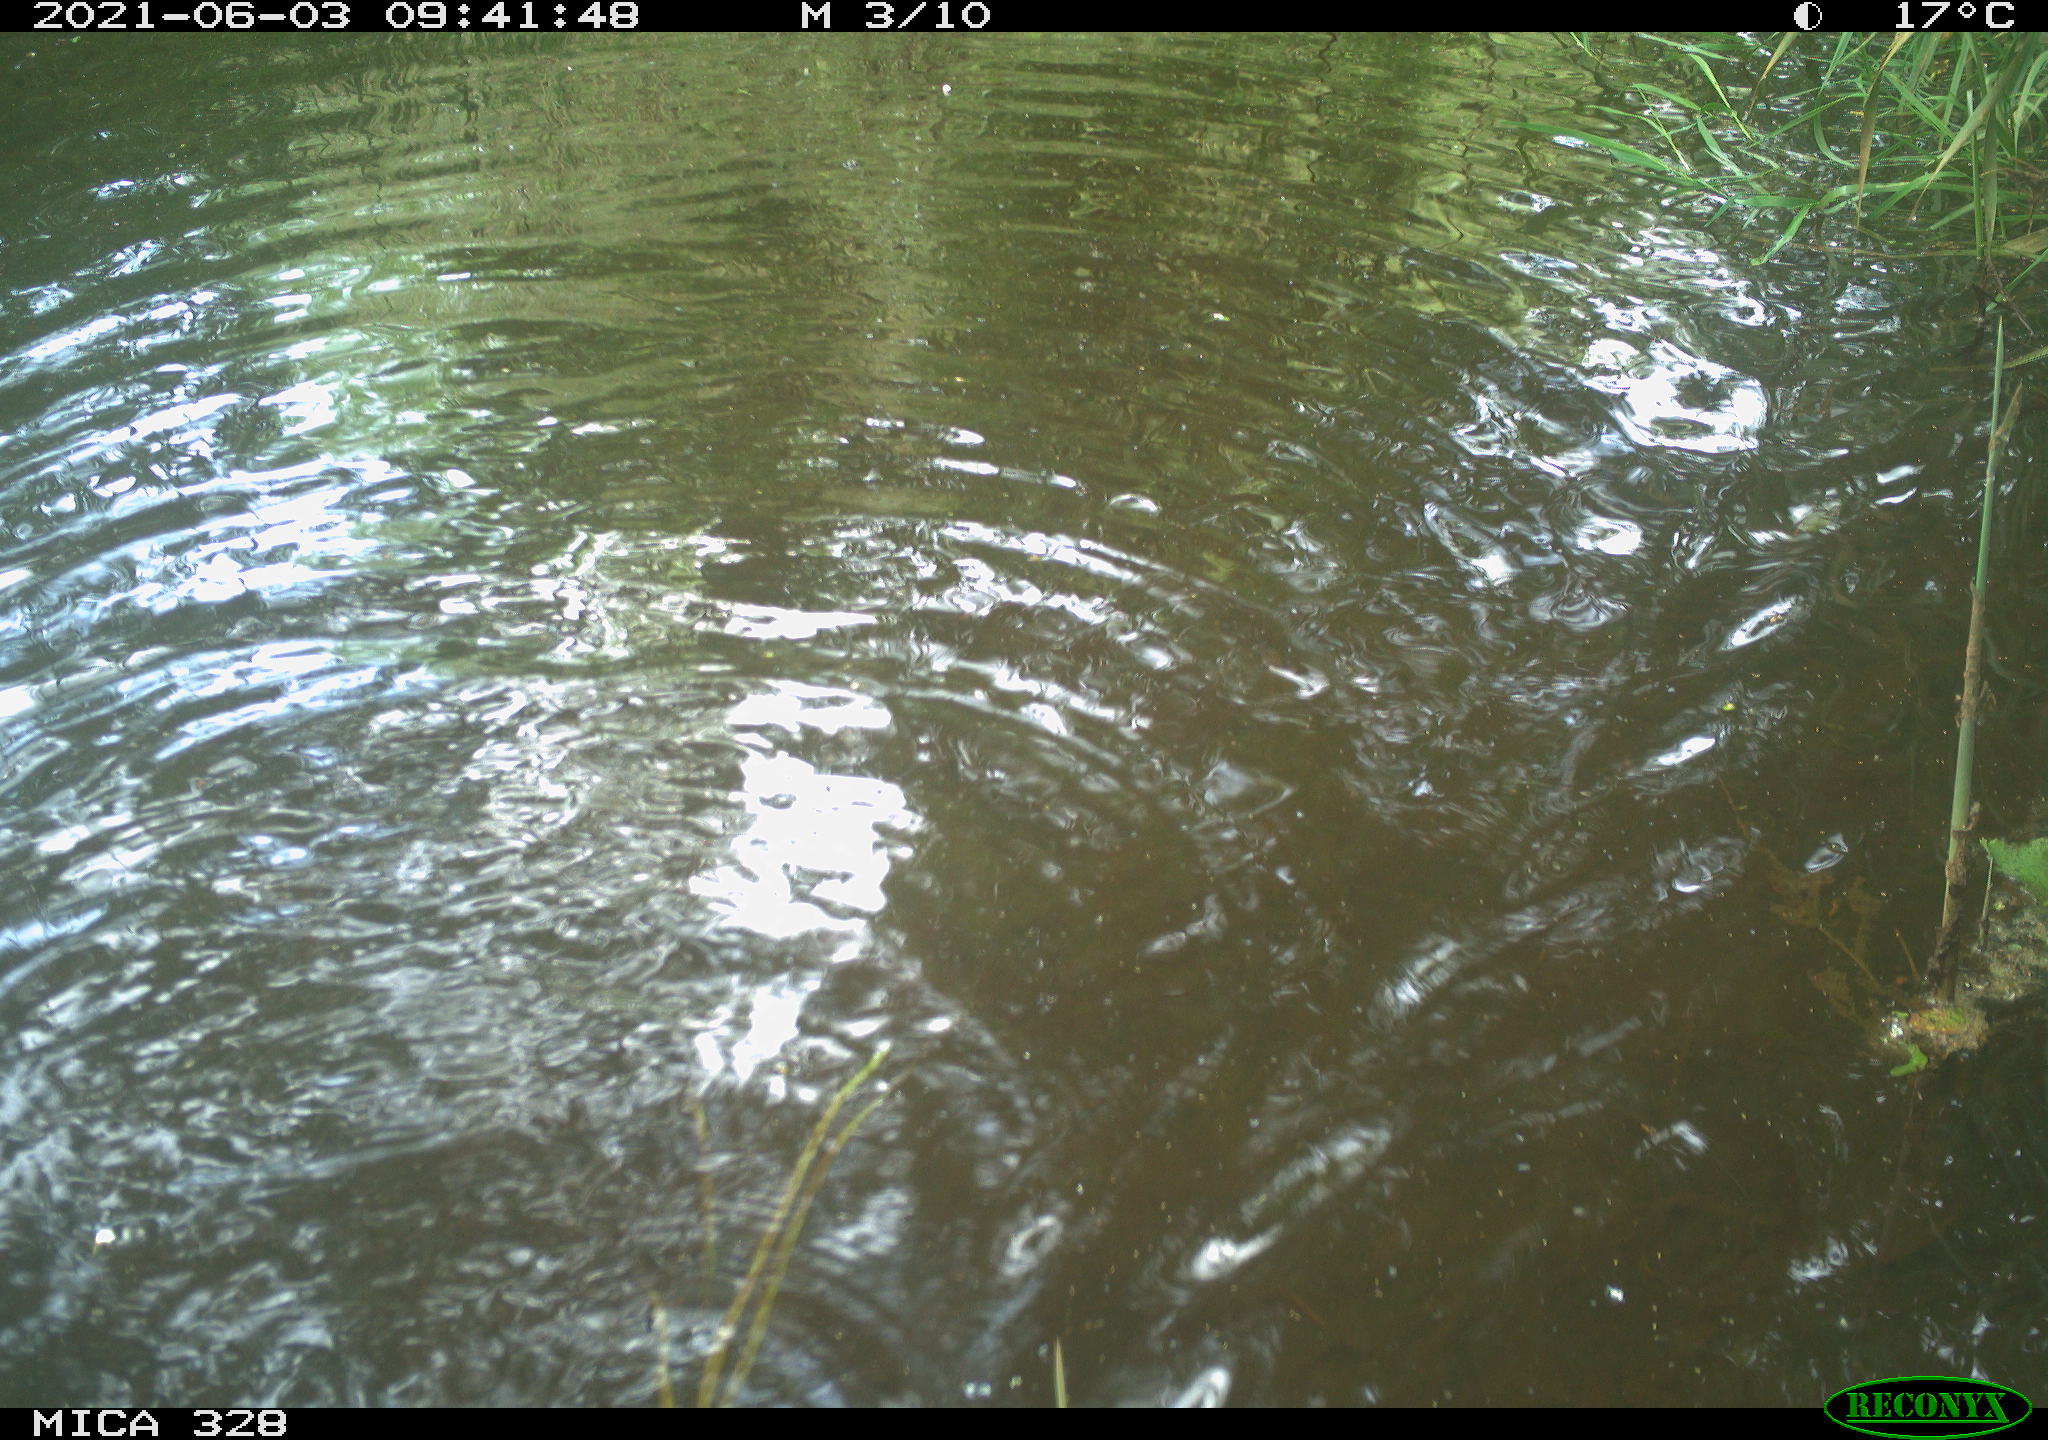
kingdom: Animalia
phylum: Chordata
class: Mammalia
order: Rodentia
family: Cricetidae
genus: Ondatra
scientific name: Ondatra zibethicus
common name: Muskrat
